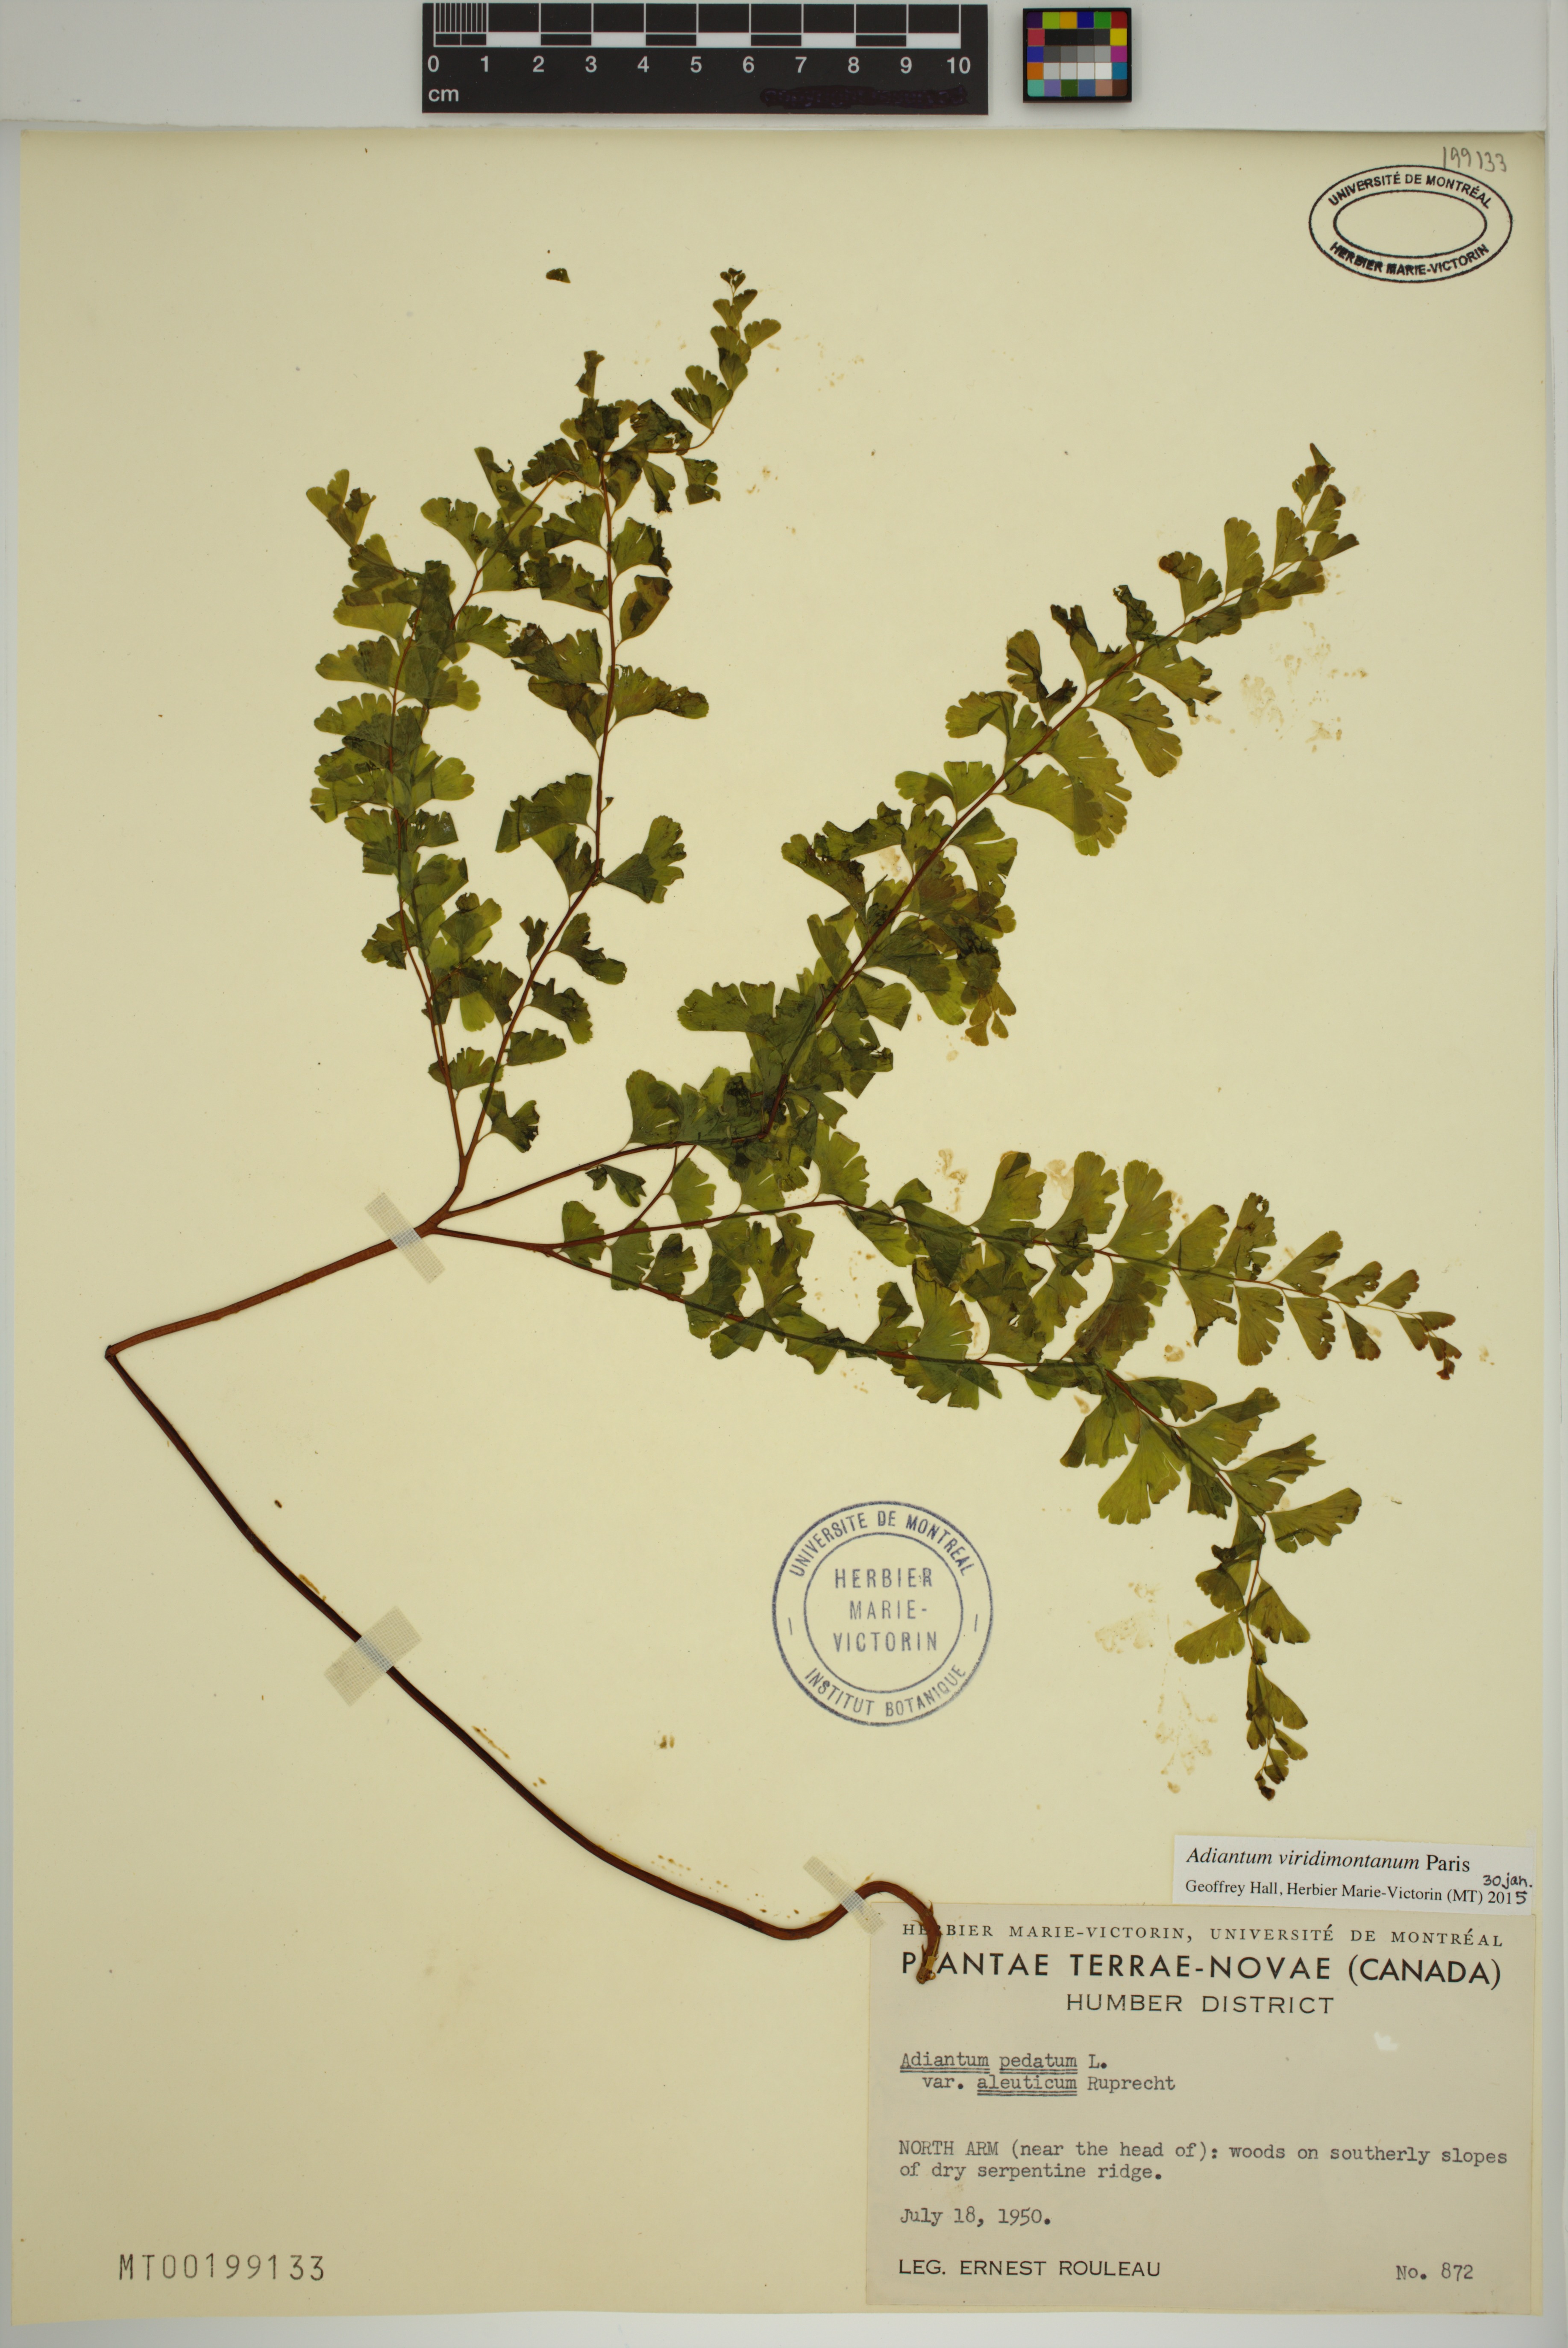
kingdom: Plantae
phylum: Tracheophyta
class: Polypodiopsida
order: Polypodiales
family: Pteridaceae
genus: Adiantum
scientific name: Adiantum viridimontanum
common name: Green mountain maidenhair
